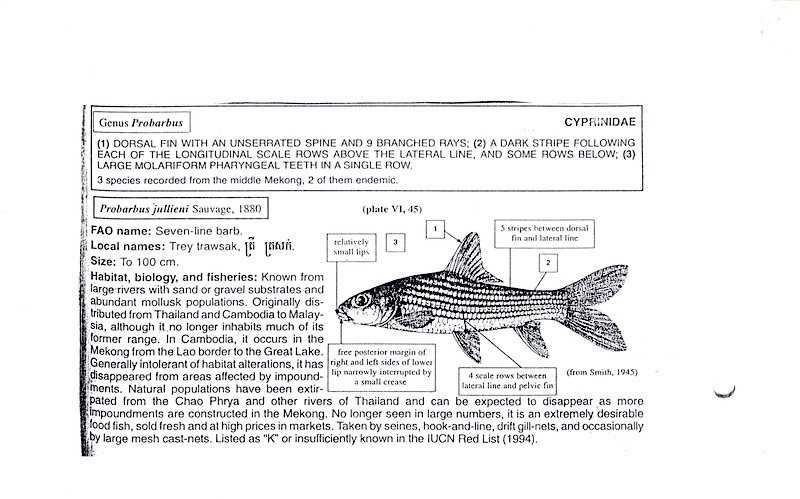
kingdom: Animalia
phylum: Chordata
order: Cypriniformes
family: Cyprinidae
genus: Probarbus
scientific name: Probarbus jullieni
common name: Jullien's golden carp
